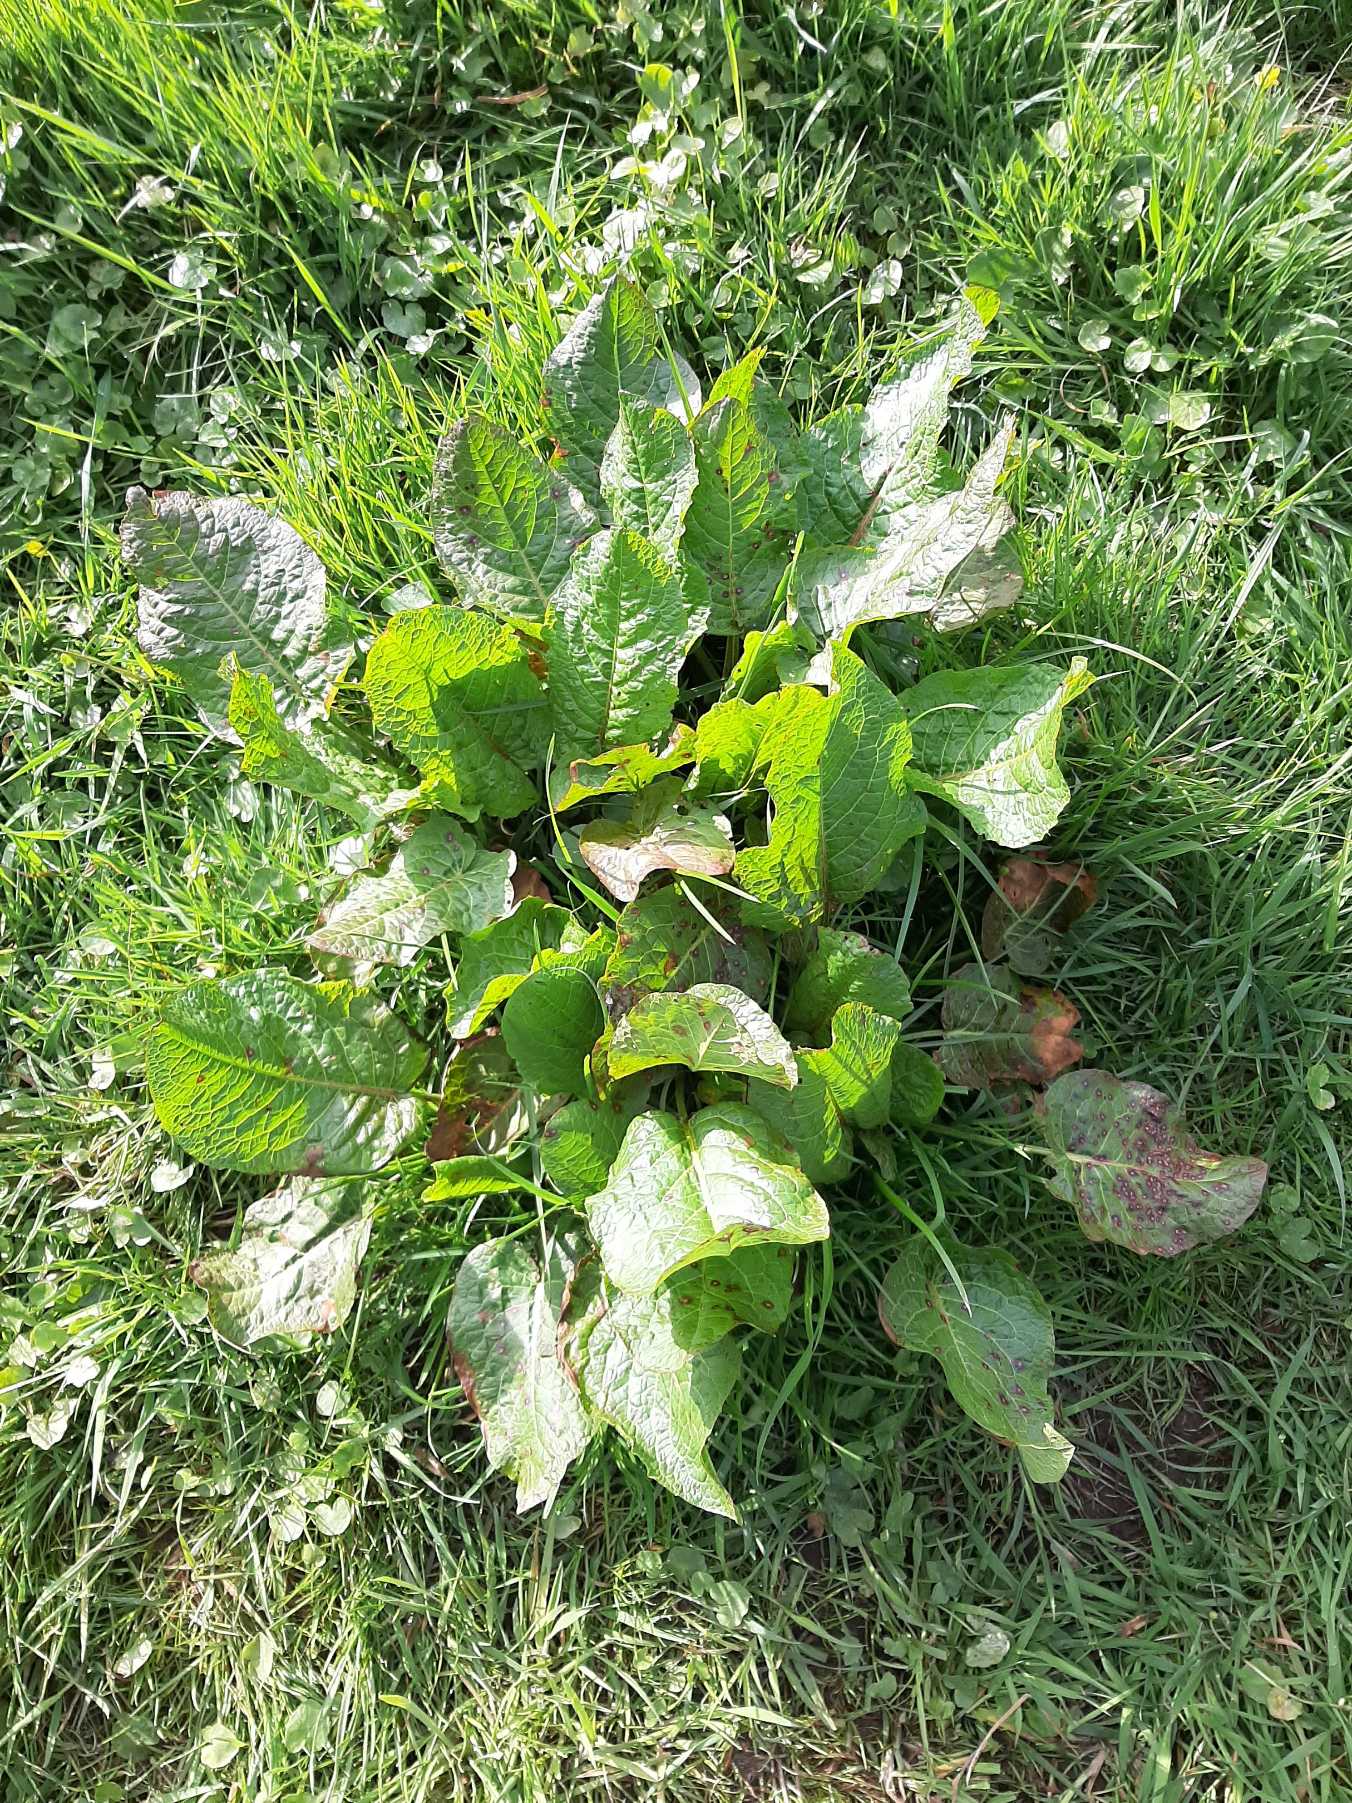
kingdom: Plantae
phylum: Tracheophyta
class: Magnoliopsida
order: Caryophyllales
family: Polygonaceae
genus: Rumex
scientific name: Rumex obtusifolius
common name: Butbladet skræppe
